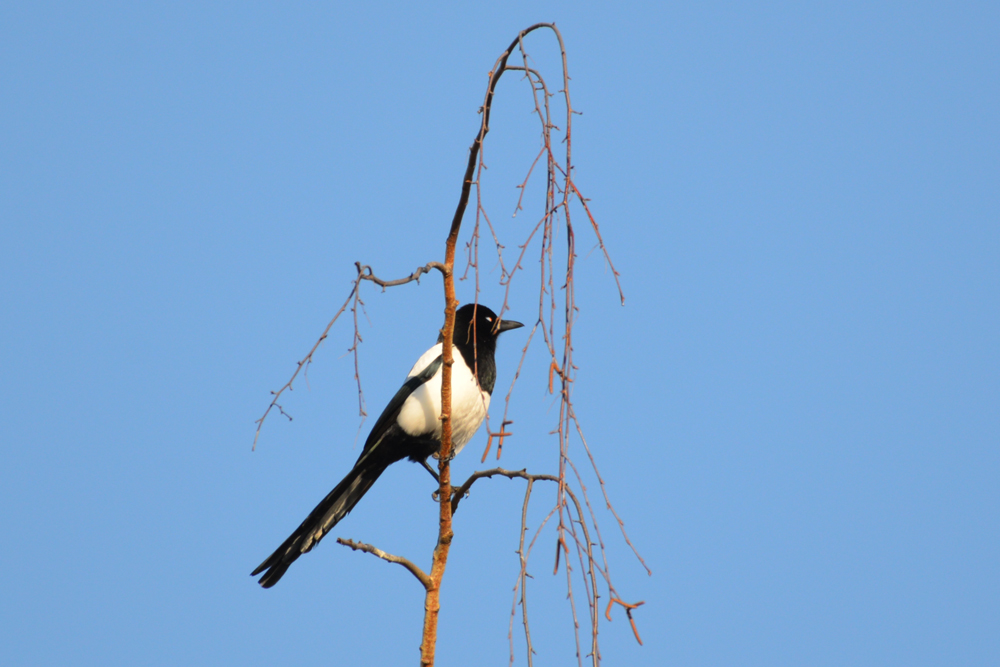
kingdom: Animalia
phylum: Chordata
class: Aves
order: Passeriformes
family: Corvidae
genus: Pica
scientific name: Pica pica
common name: Eurasian magpie
